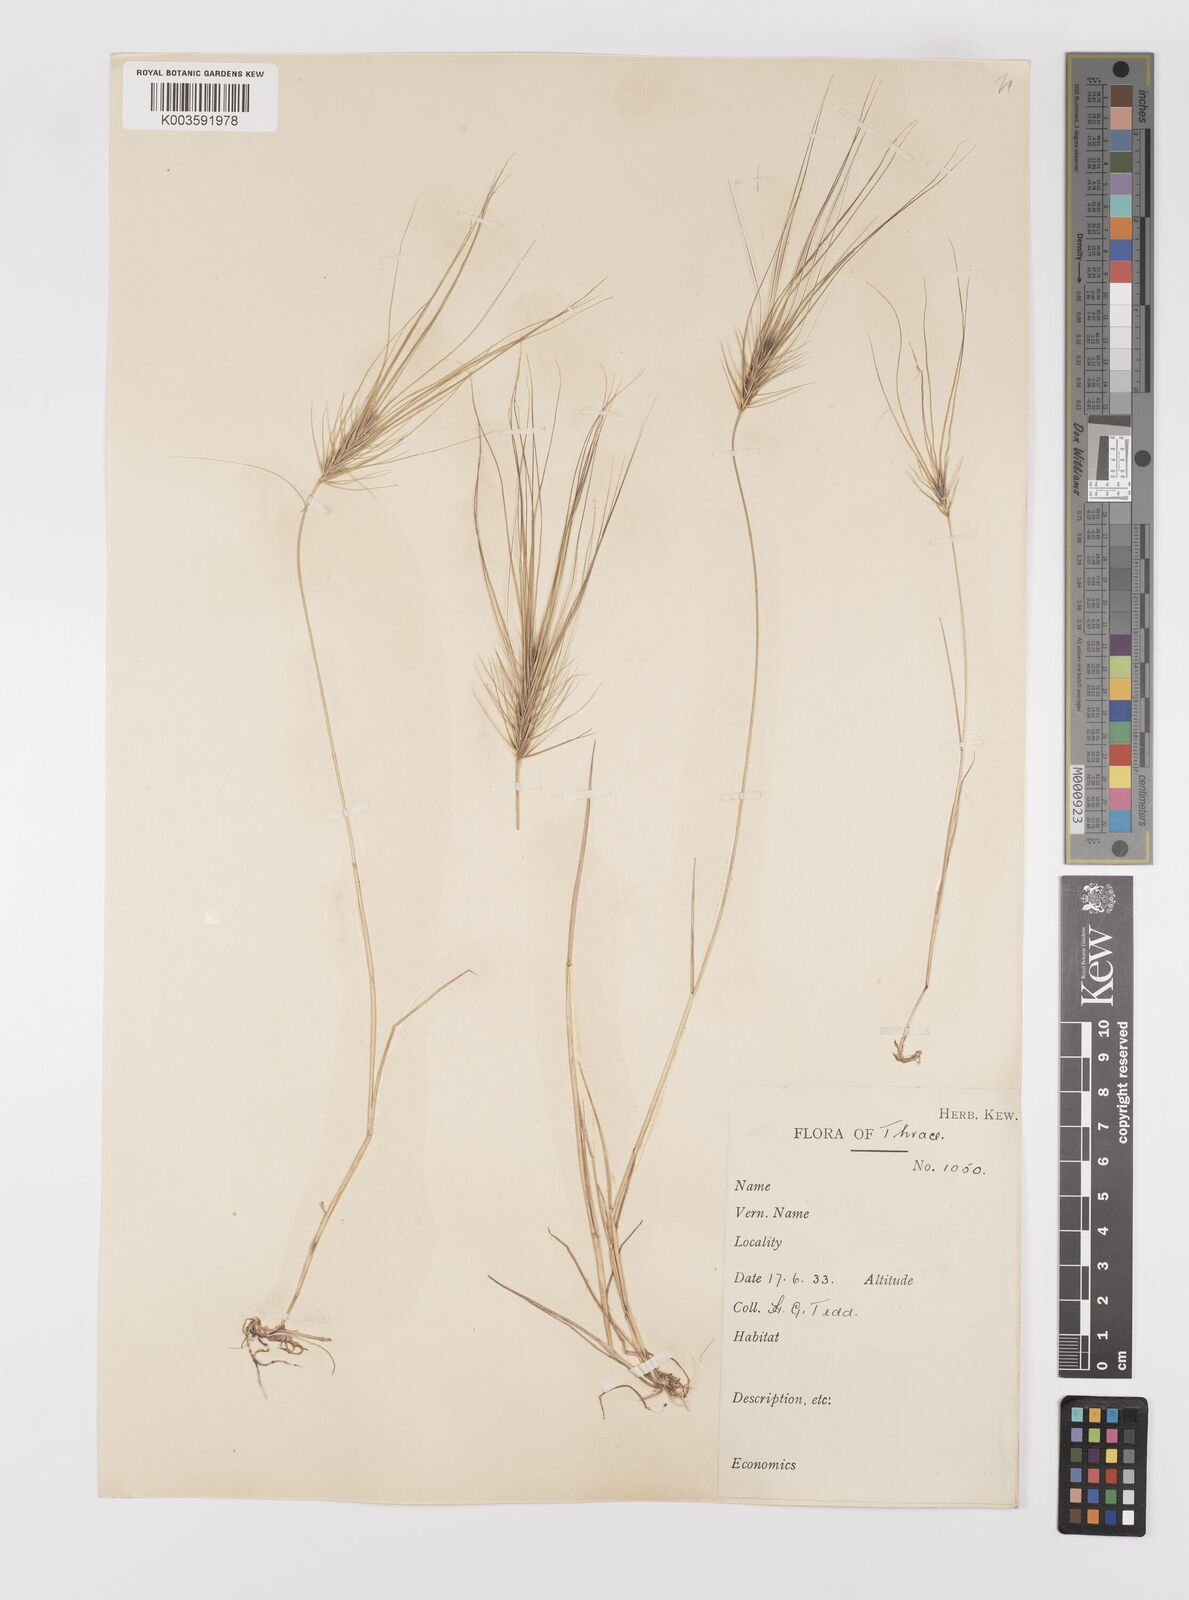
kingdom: Plantae
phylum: Tracheophyta
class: Liliopsida
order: Poales
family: Poaceae
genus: Taeniatherum
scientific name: Taeniatherum caput-medusae
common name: Medusahead
